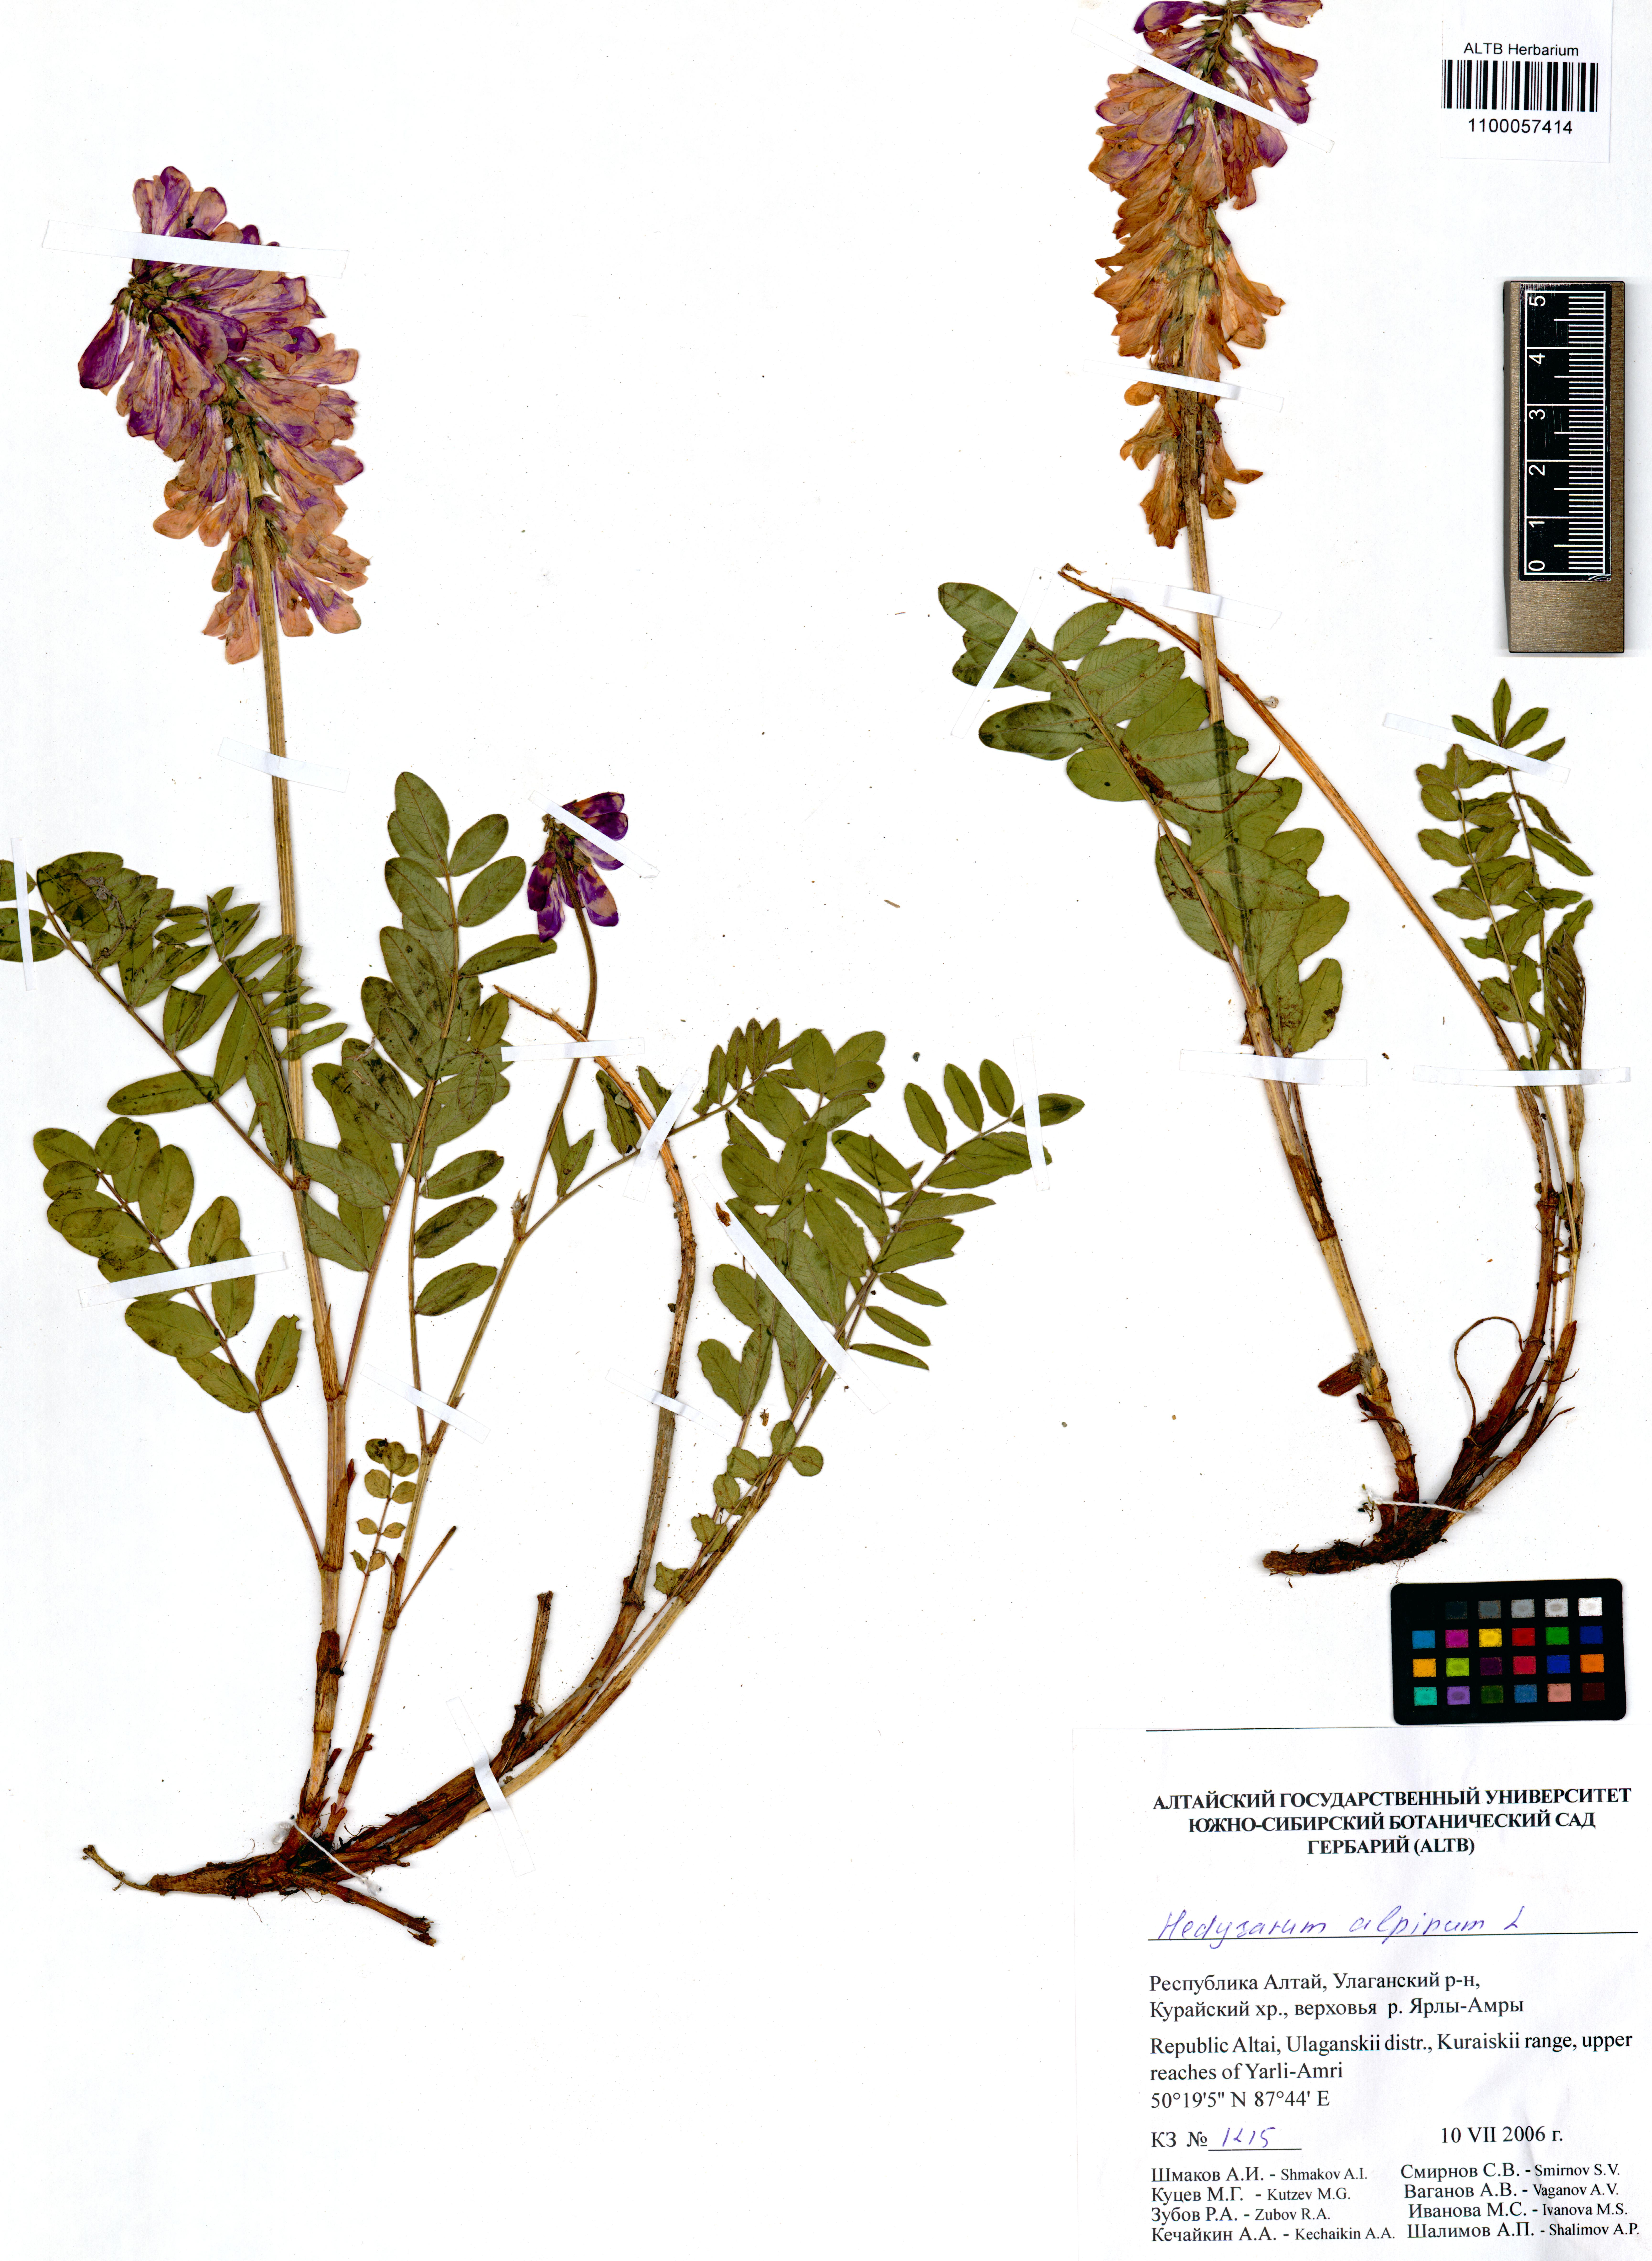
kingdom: Plantae
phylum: Tracheophyta
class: Magnoliopsida
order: Fabales
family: Fabaceae
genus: Hedysarum
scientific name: Hedysarum alpinum
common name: Alpine sweet-vetch
